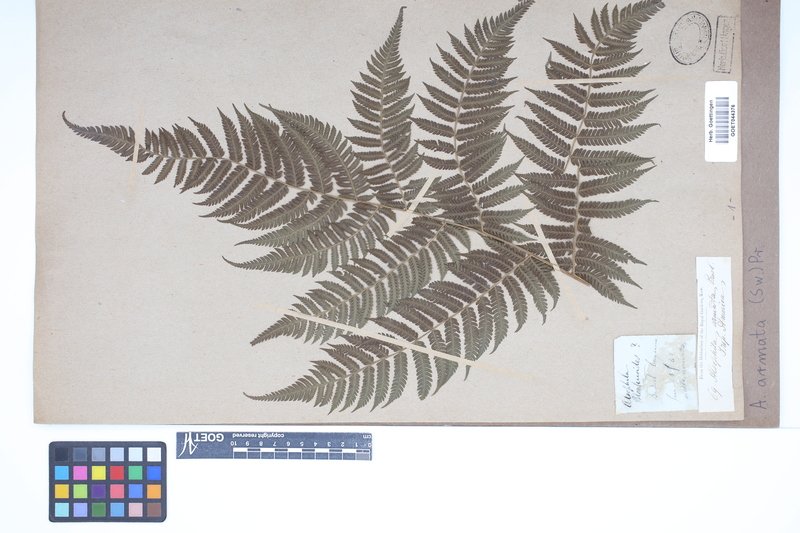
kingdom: Plantae
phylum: Tracheophyta
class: Polypodiopsida
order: Cyatheales
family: Cyatheaceae
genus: Cyathea
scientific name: Cyathea armata
